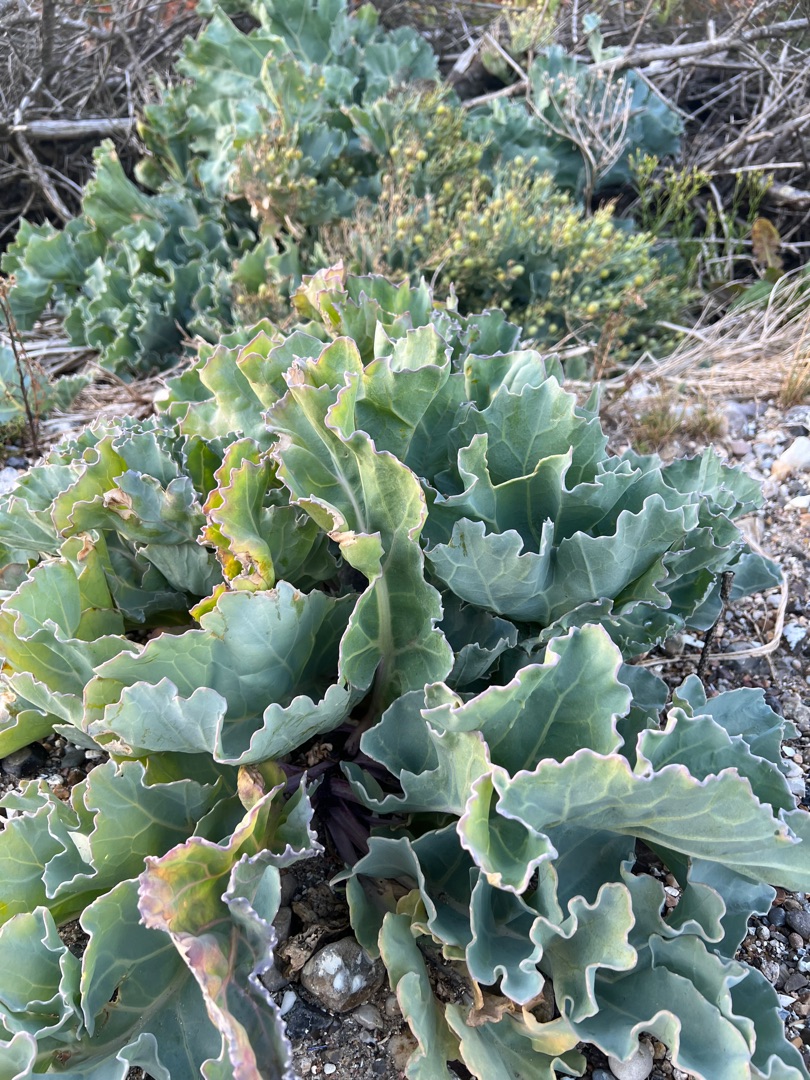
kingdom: Plantae
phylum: Tracheophyta
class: Magnoliopsida
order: Brassicales
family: Brassicaceae
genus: Crambe
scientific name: Crambe maritima
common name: Strandkål
